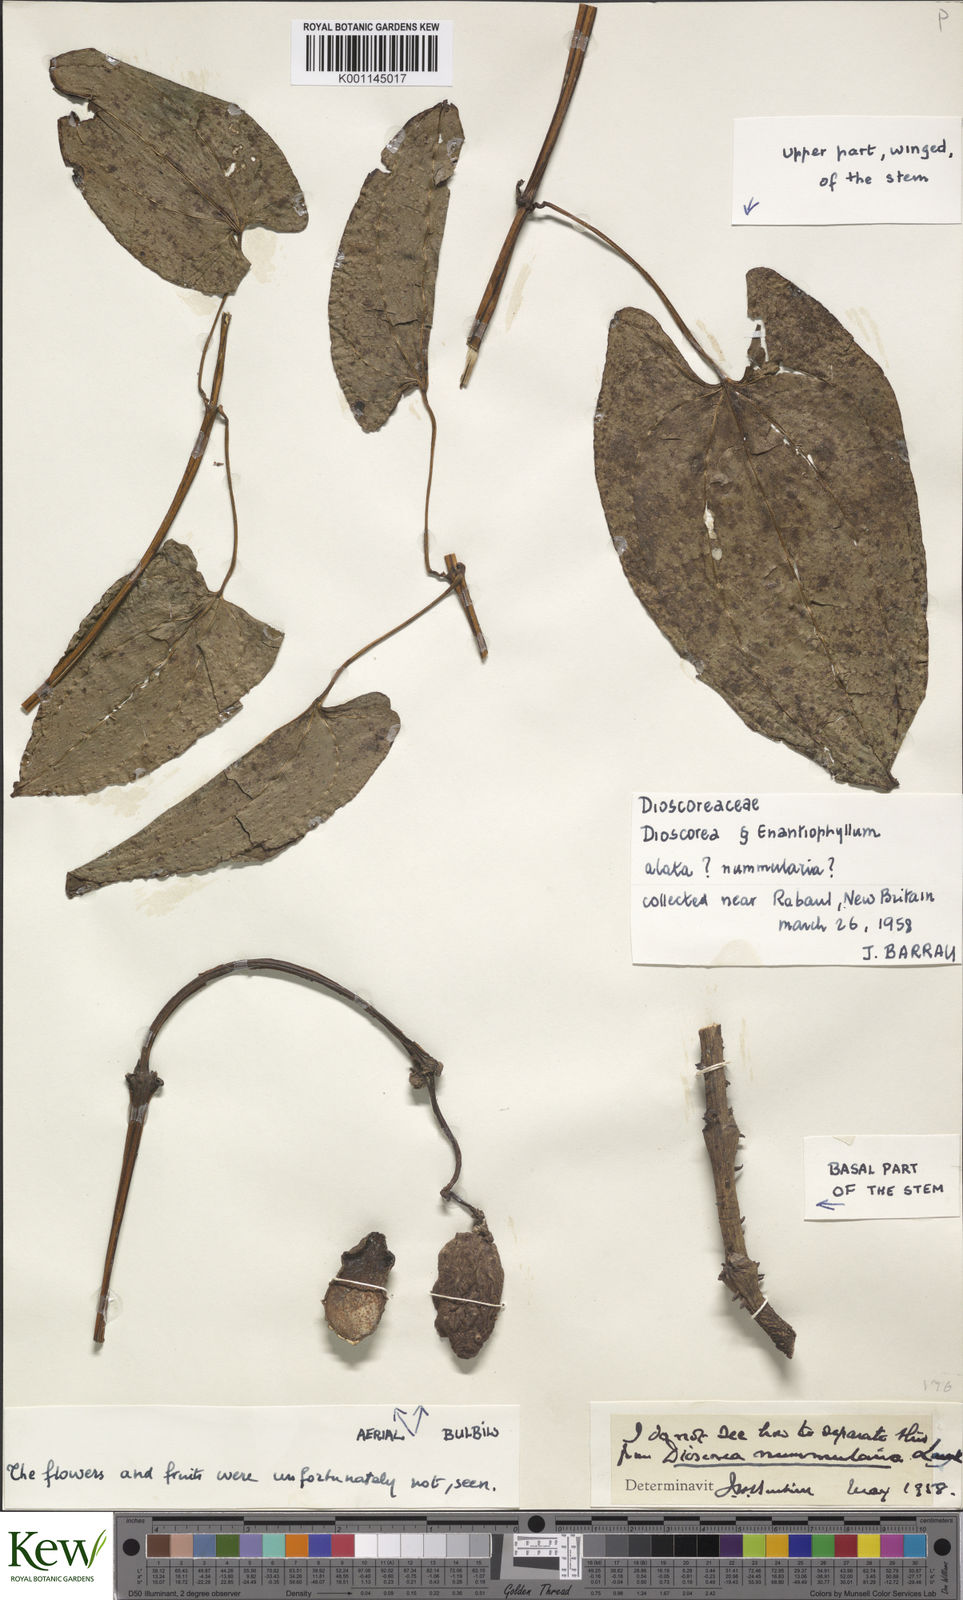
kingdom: Plantae
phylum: Tracheophyta
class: Liliopsida
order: Dioscoreales
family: Dioscoreaceae
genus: Dioscorea
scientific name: Dioscorea nummularia
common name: Pacific yam
